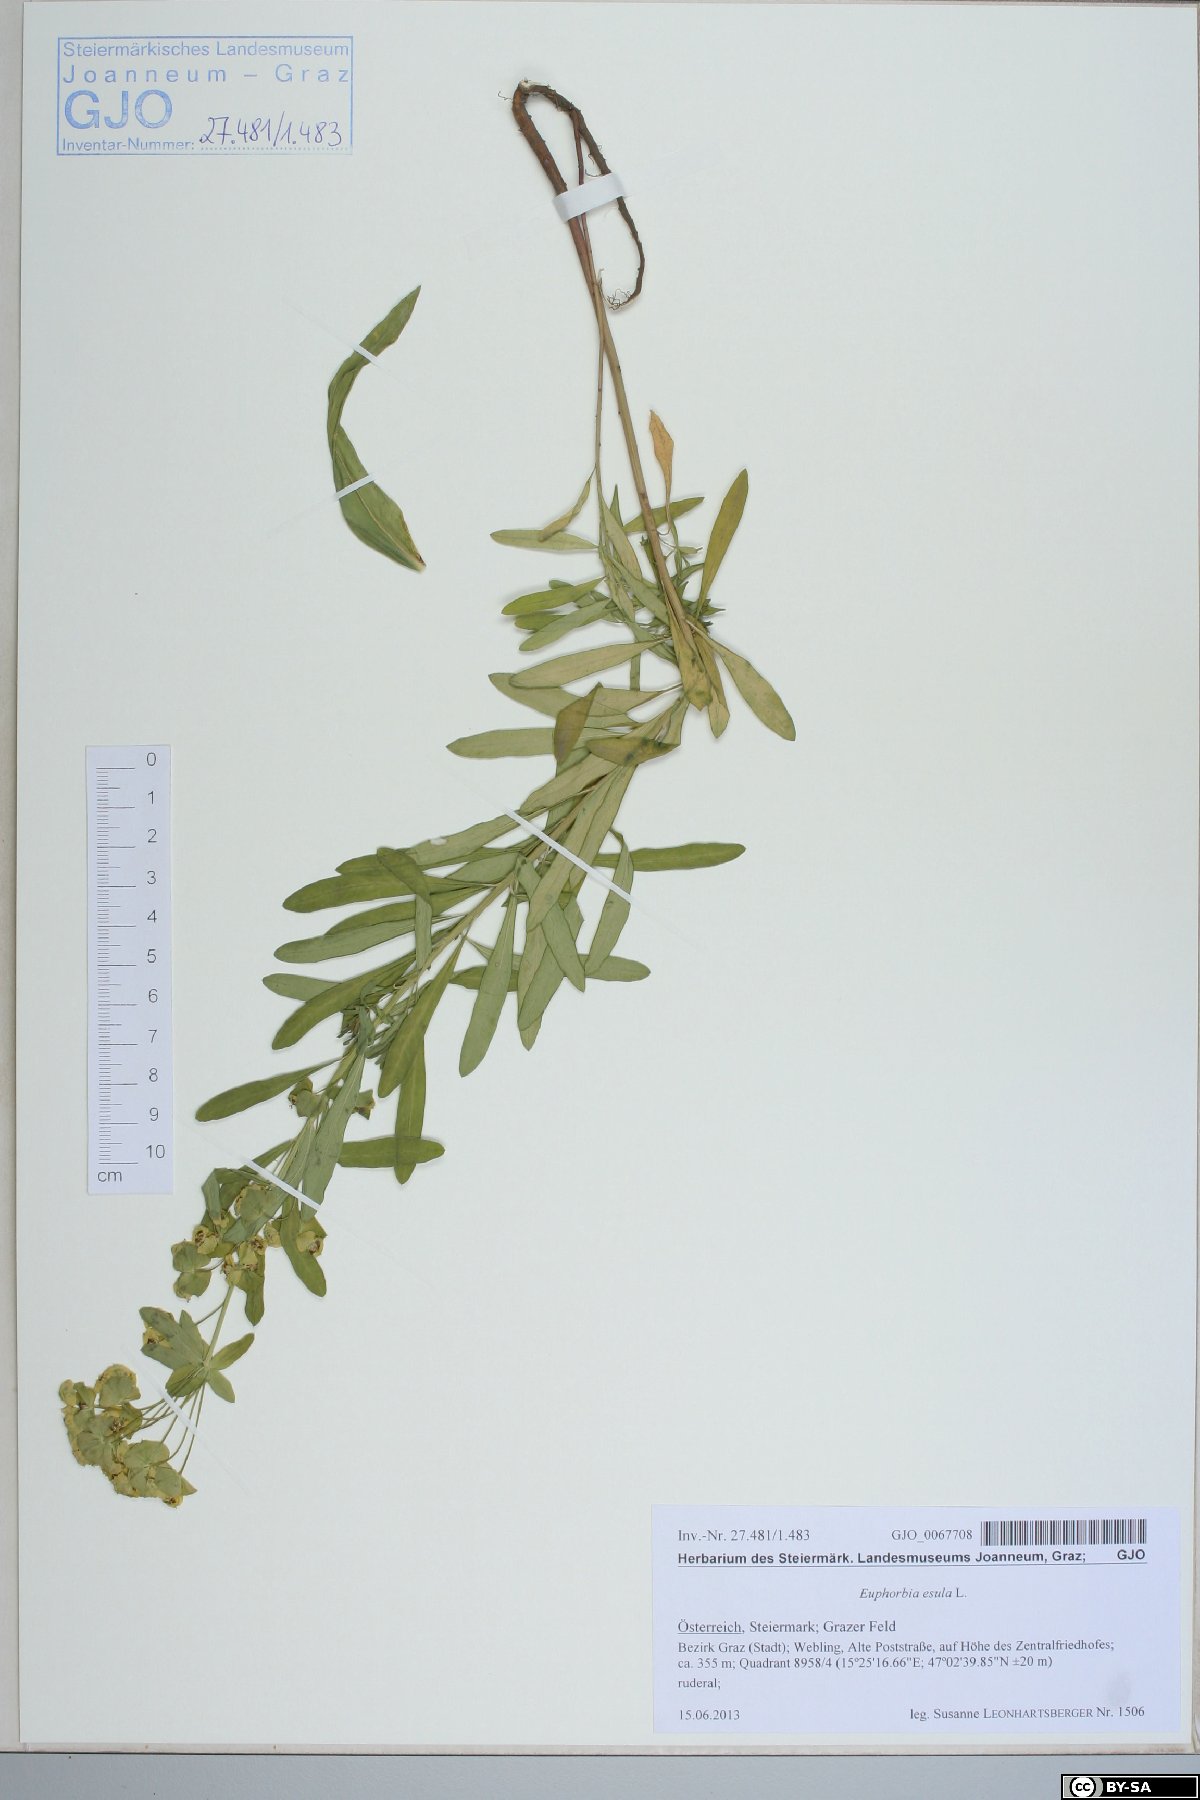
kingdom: Plantae
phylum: Tracheophyta
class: Magnoliopsida
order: Malpighiales
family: Euphorbiaceae
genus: Euphorbia
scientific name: Euphorbia esula
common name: Leafy spurge
